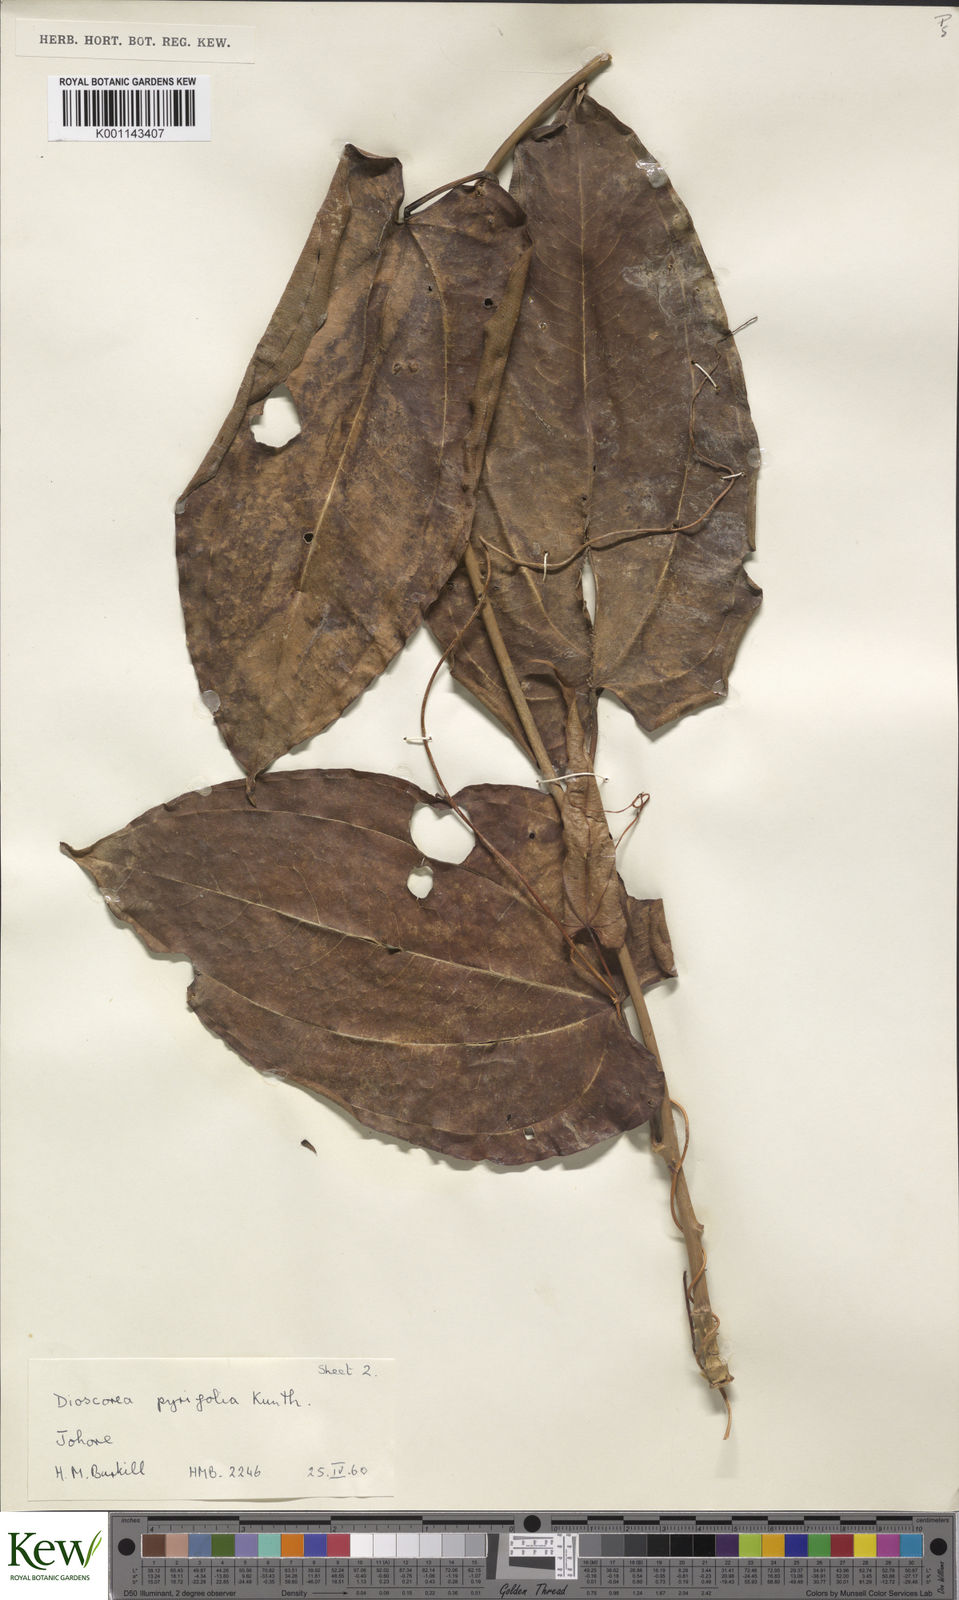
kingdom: Plantae
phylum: Tracheophyta
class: Liliopsida
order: Dioscoreales
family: Dioscoreaceae
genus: Dioscorea
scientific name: Dioscorea pyrifolia
